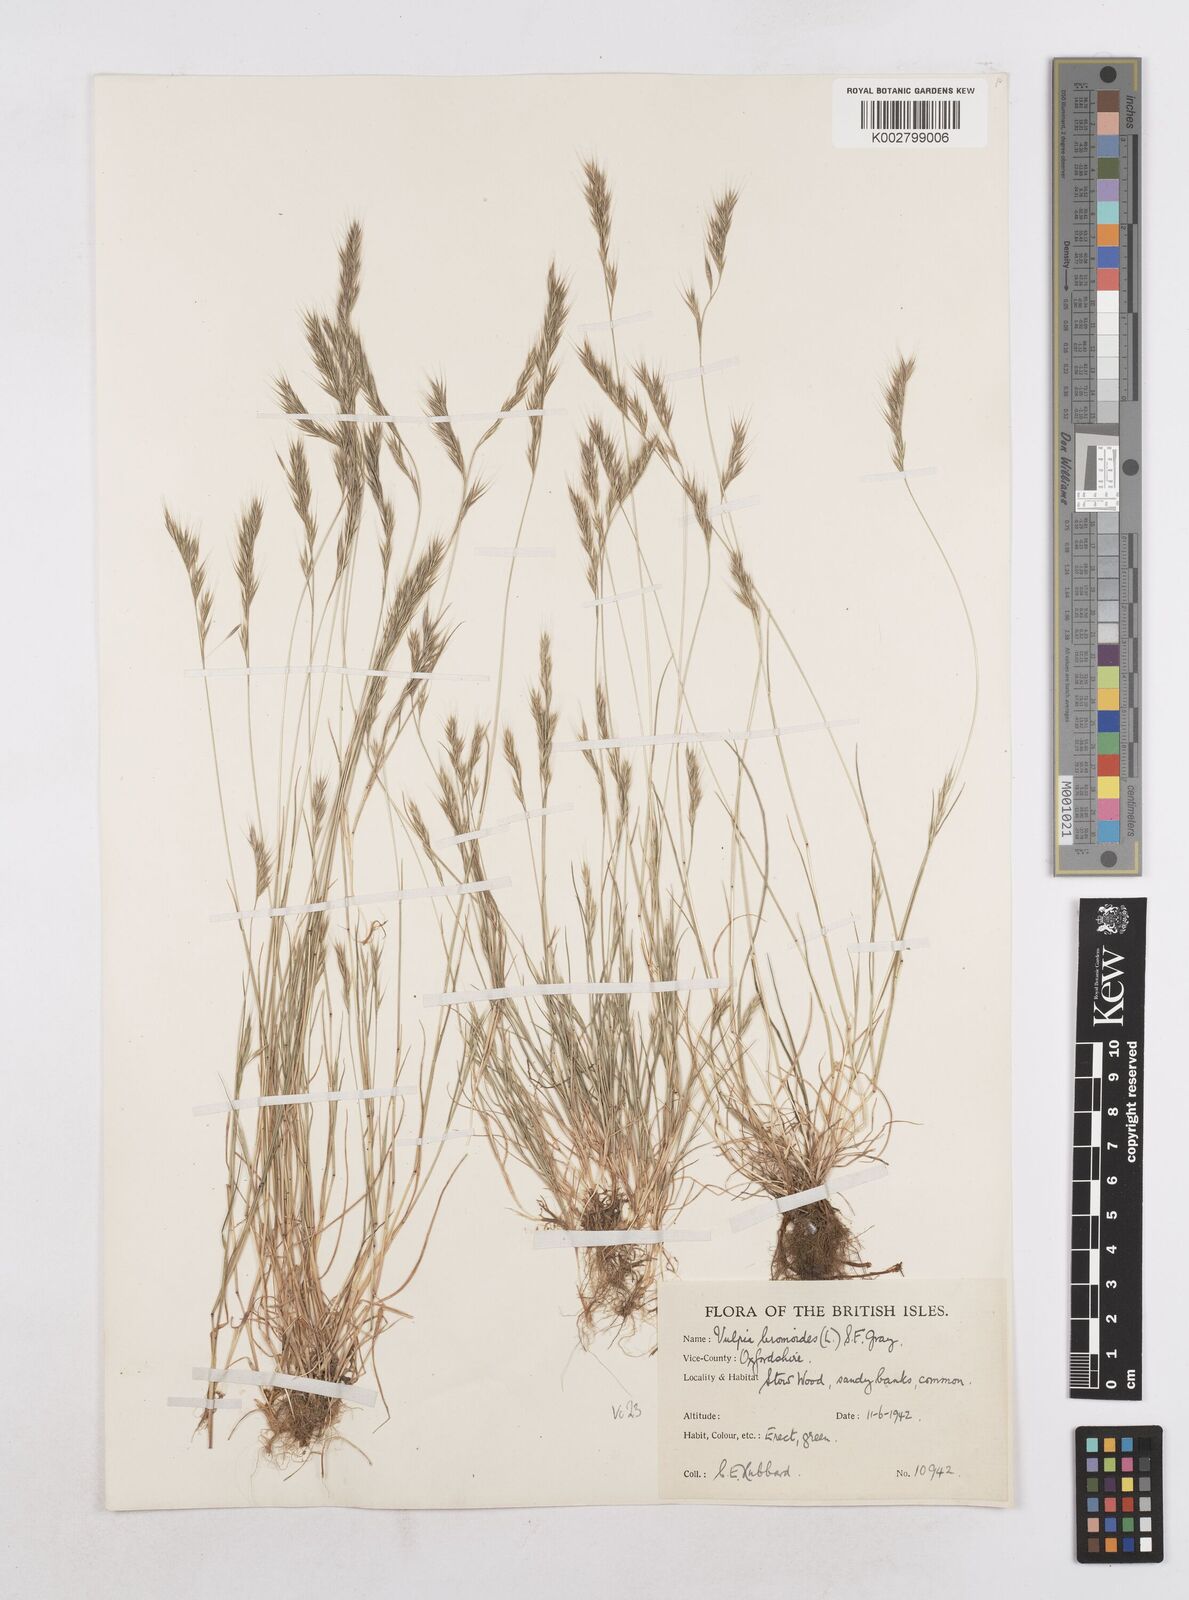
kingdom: Plantae
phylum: Tracheophyta
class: Liliopsida
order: Poales
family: Poaceae
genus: Festuca
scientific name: Festuca bromoides
